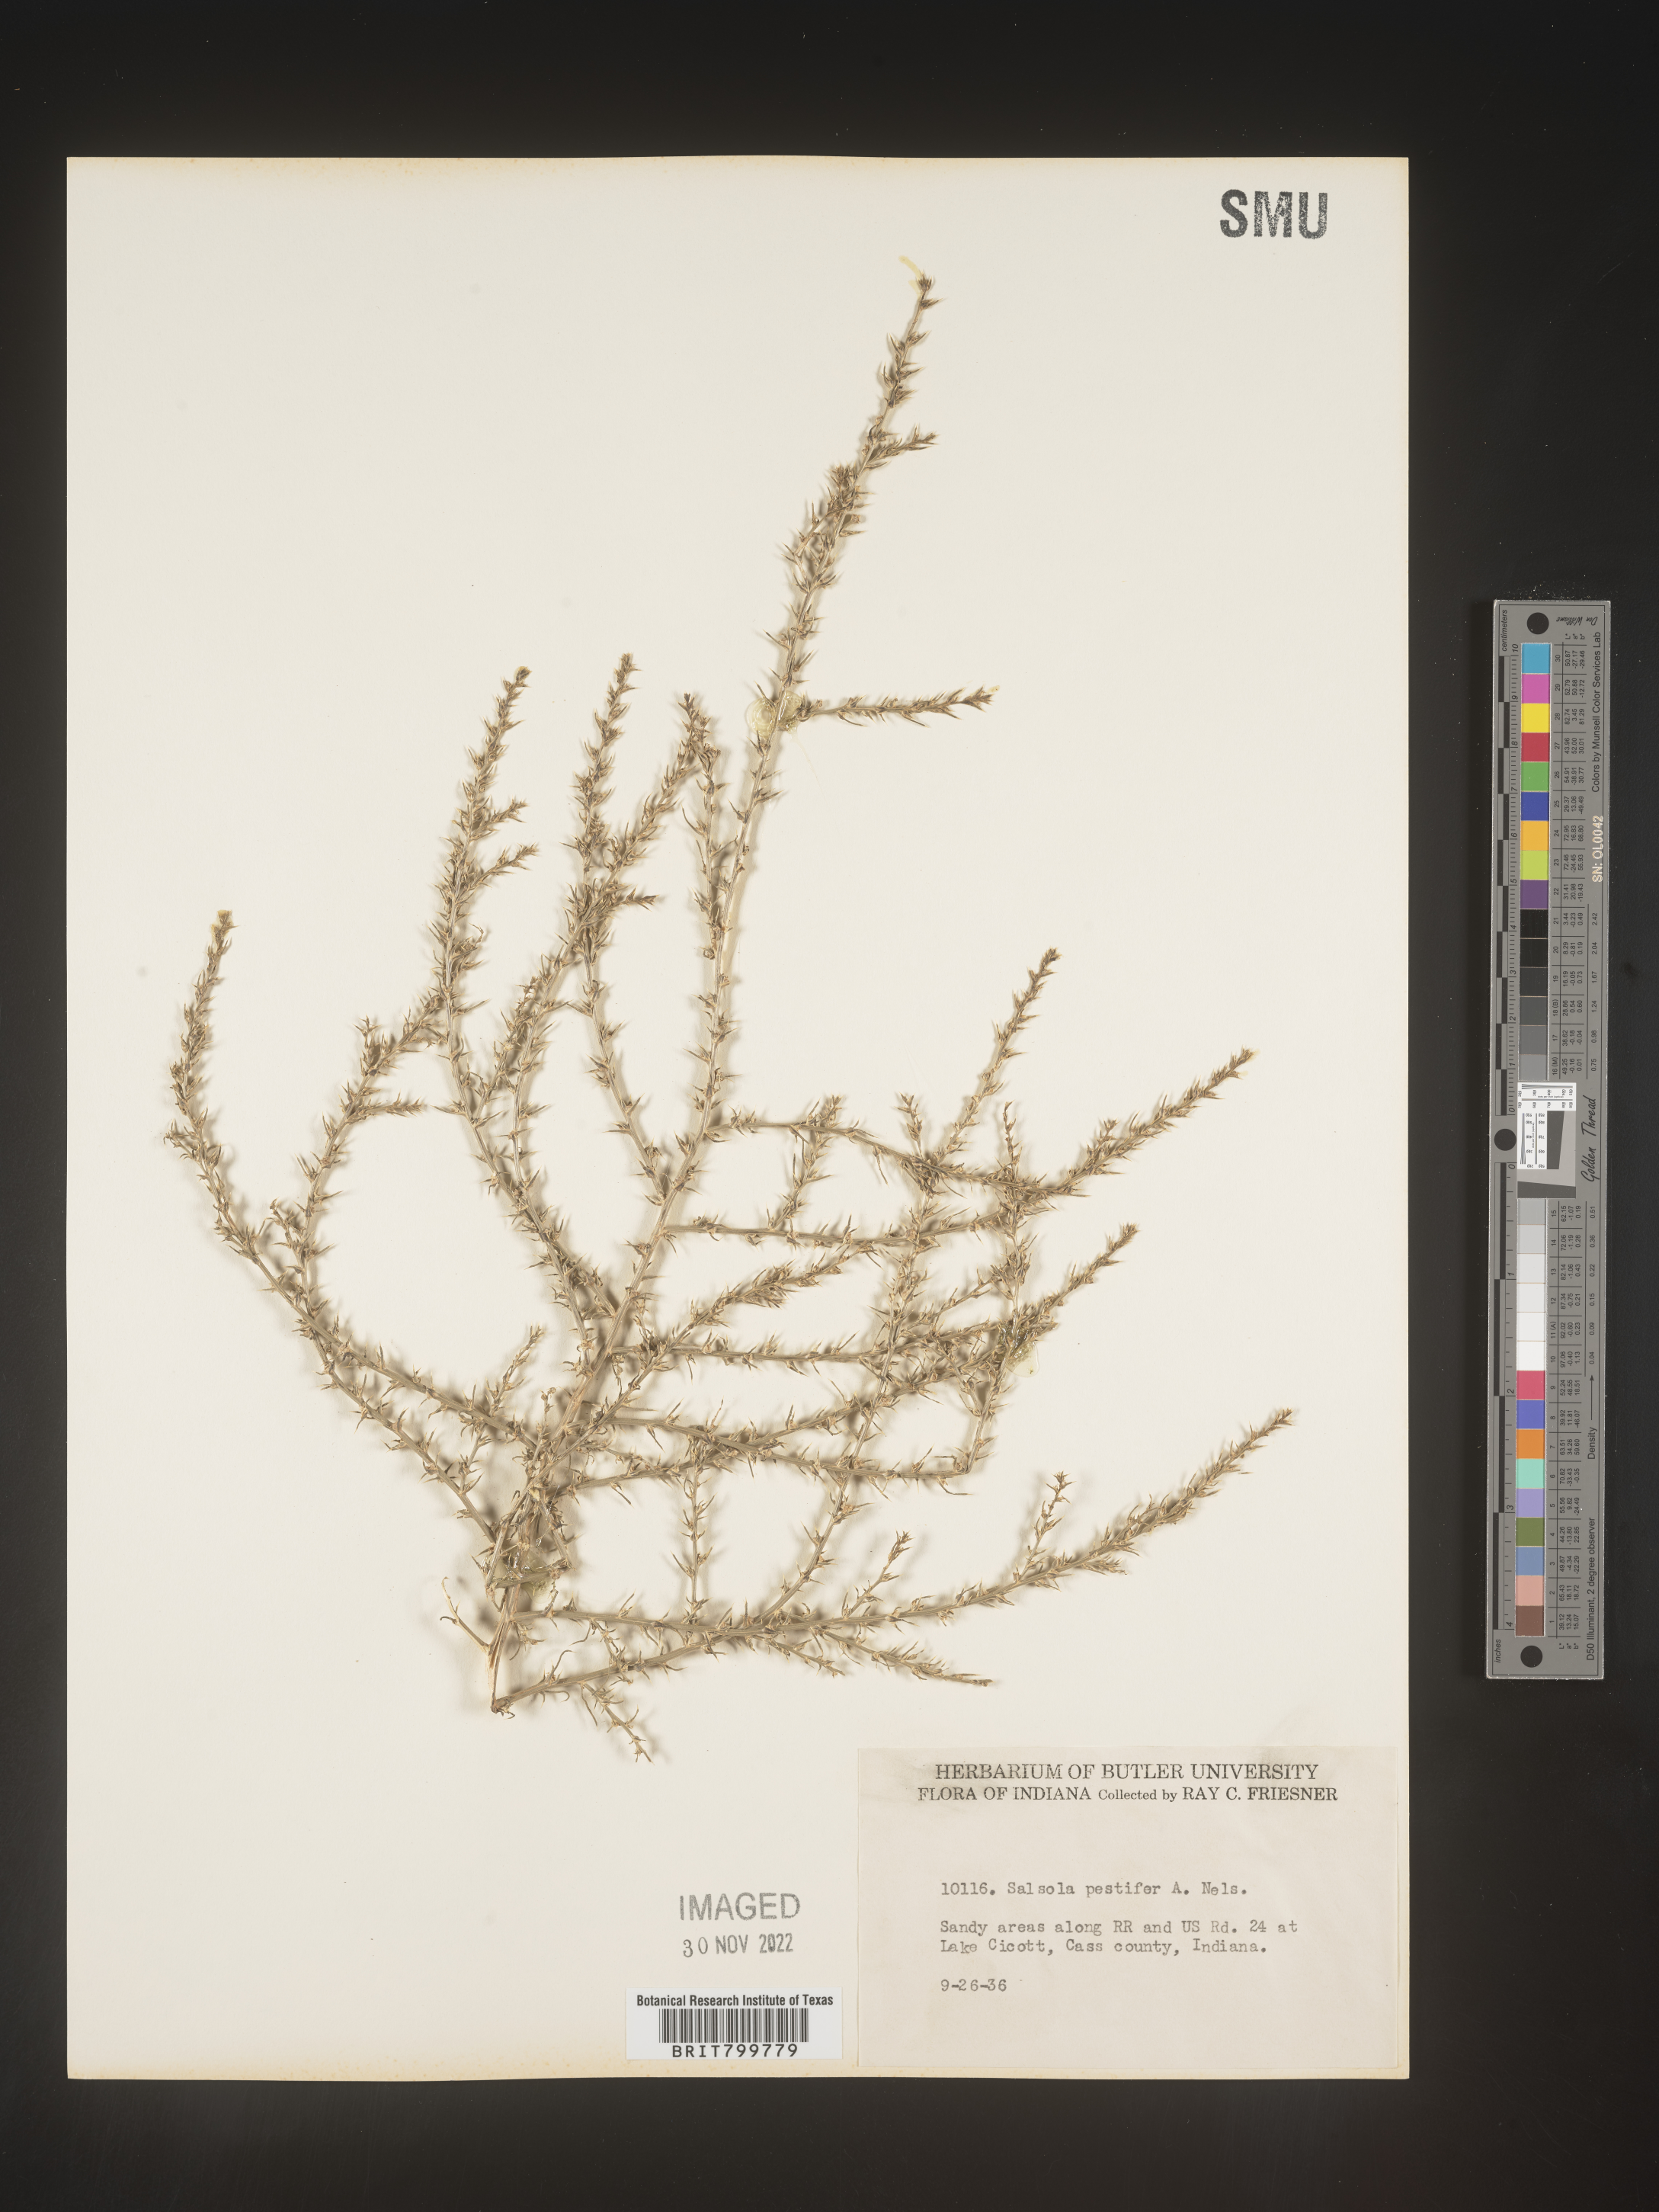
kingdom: Plantae
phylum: Tracheophyta
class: Magnoliopsida
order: Caryophyllales
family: Amaranthaceae
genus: Salsola
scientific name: Salsola tragus
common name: Prickly russian thistle
